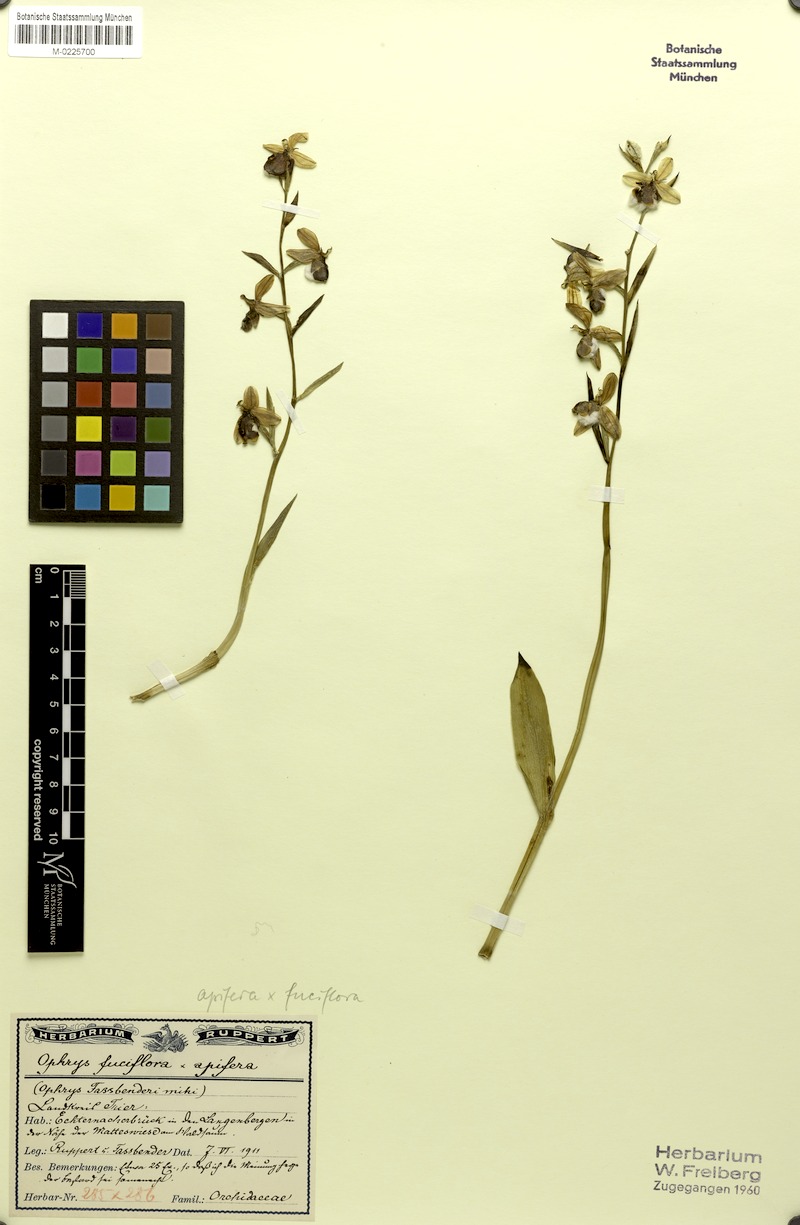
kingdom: Plantae
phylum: Tracheophyta
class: Liliopsida
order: Asparagales
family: Orchidaceae
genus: Ophrys
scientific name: Ophrys albertiana
